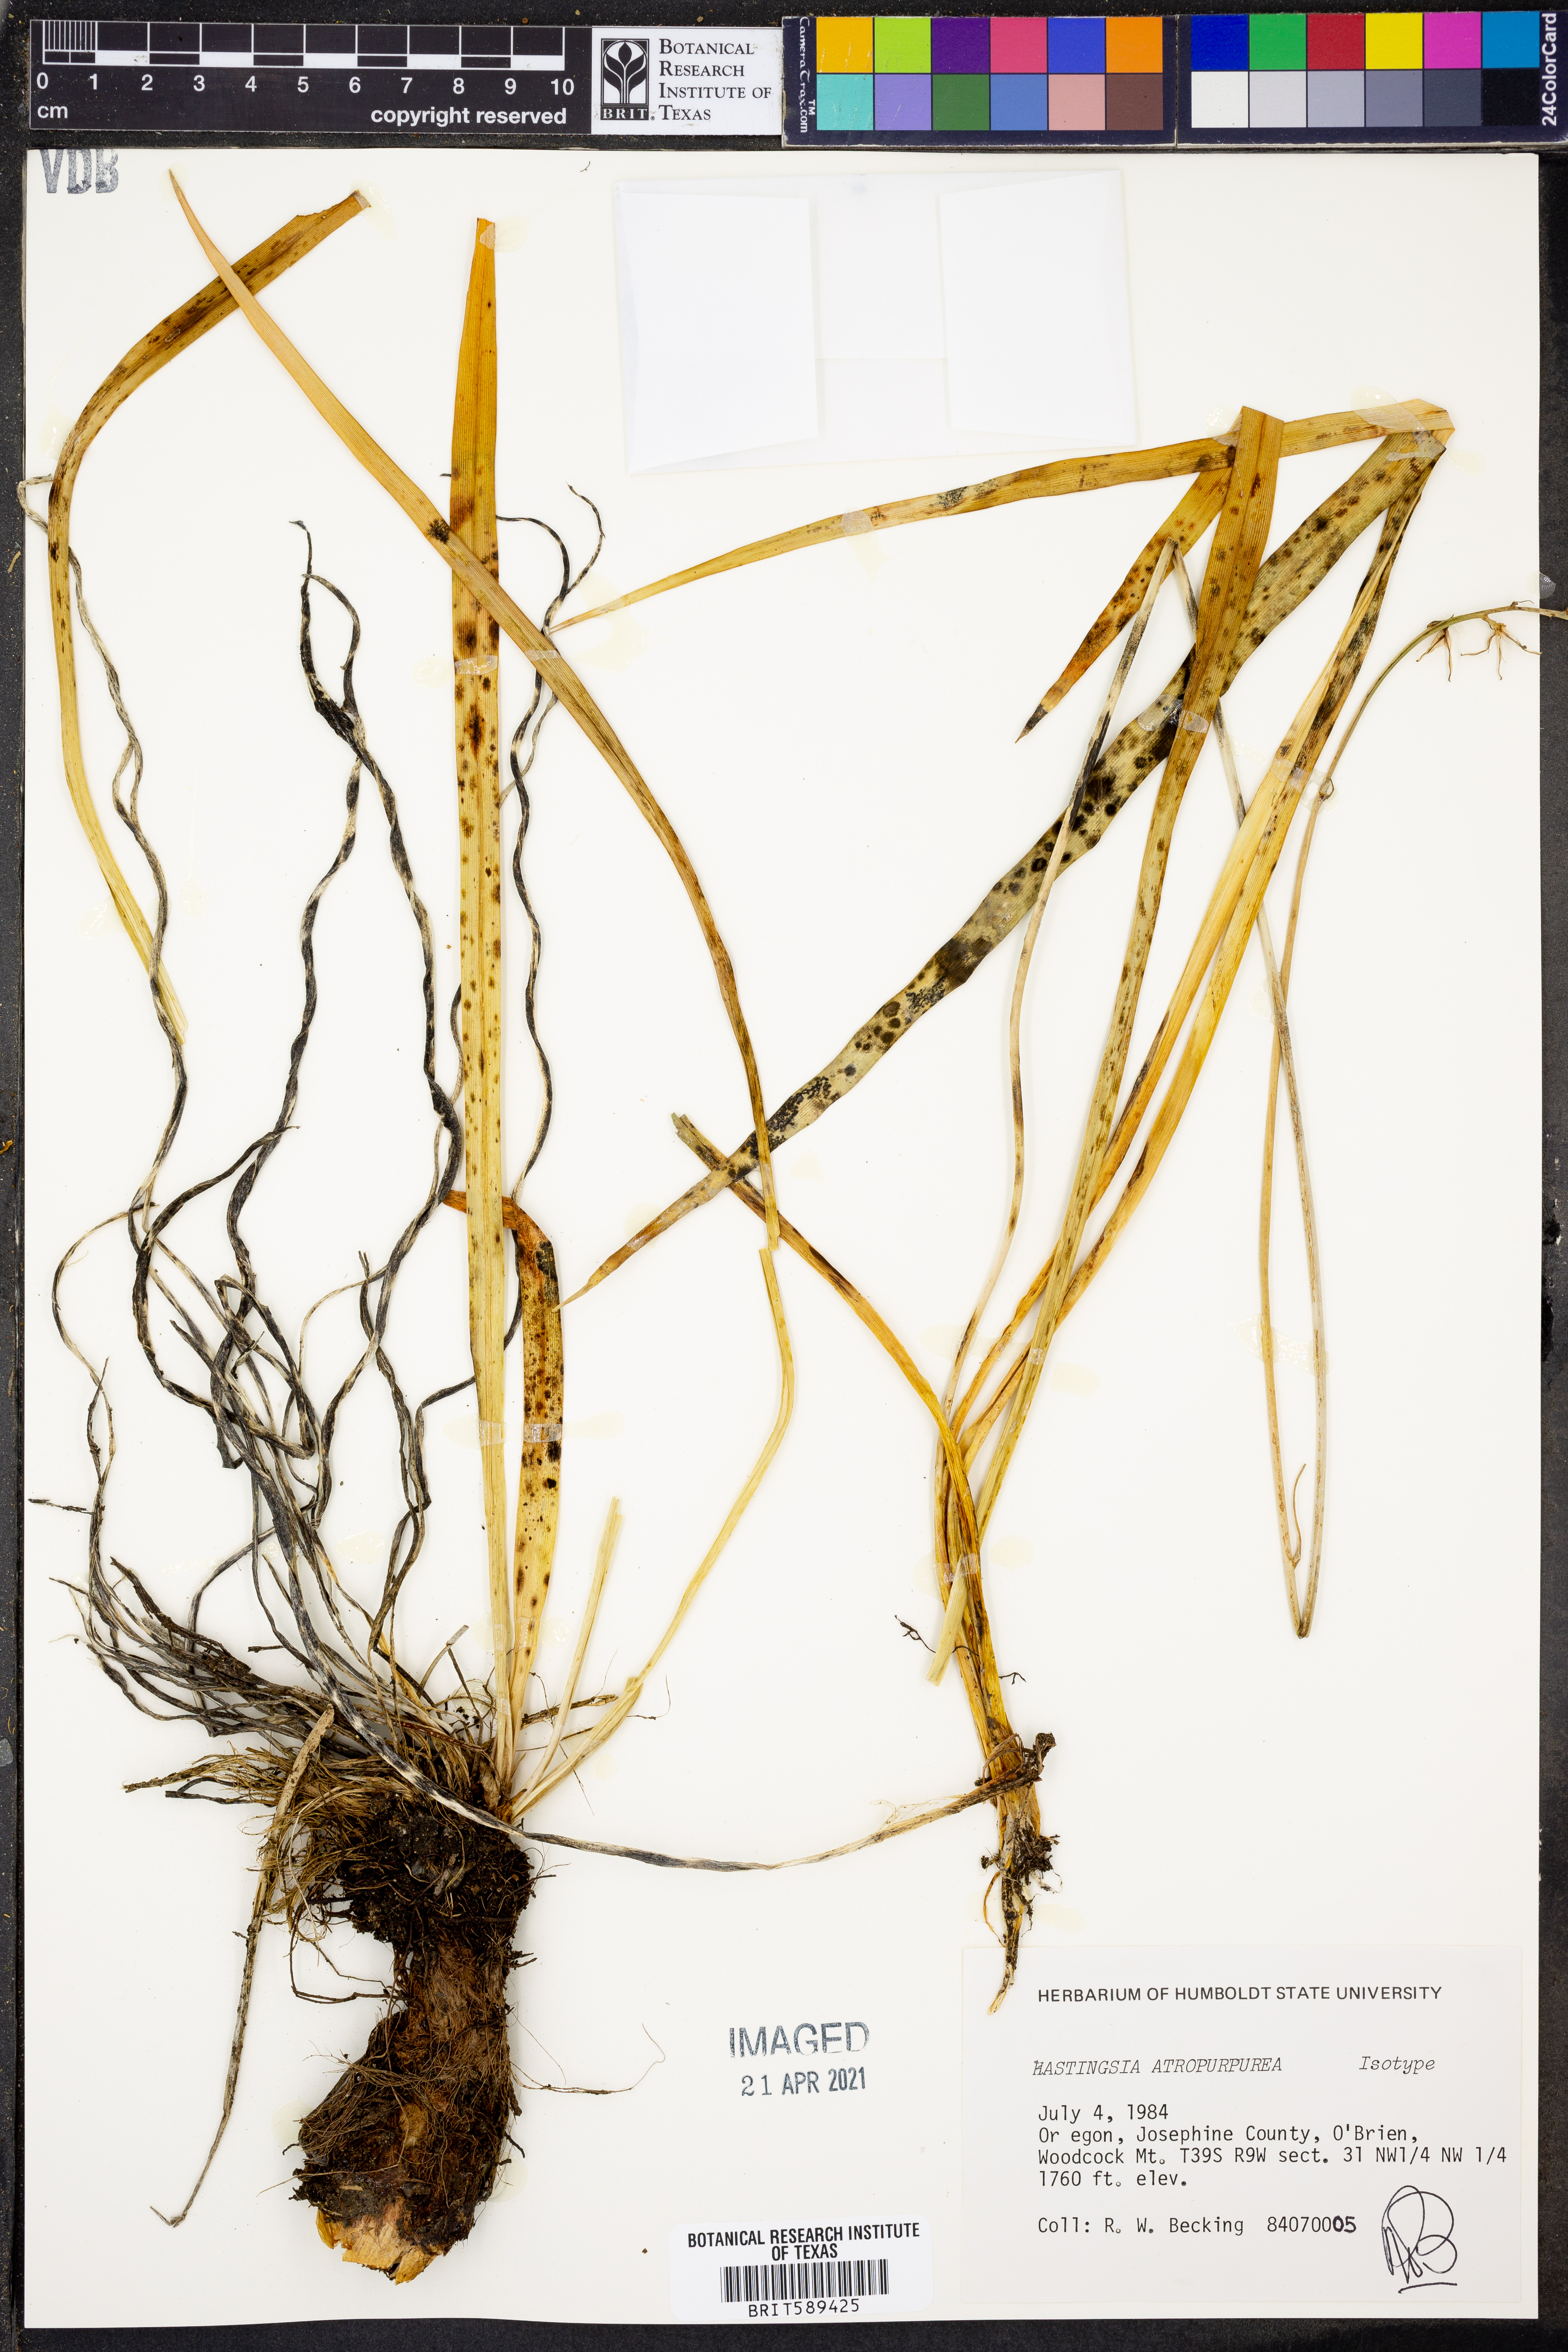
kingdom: Plantae
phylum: Tracheophyta
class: Liliopsida
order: Asparagales
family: Asparagaceae
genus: Hastingsia
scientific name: Hastingsia atropurpurea
